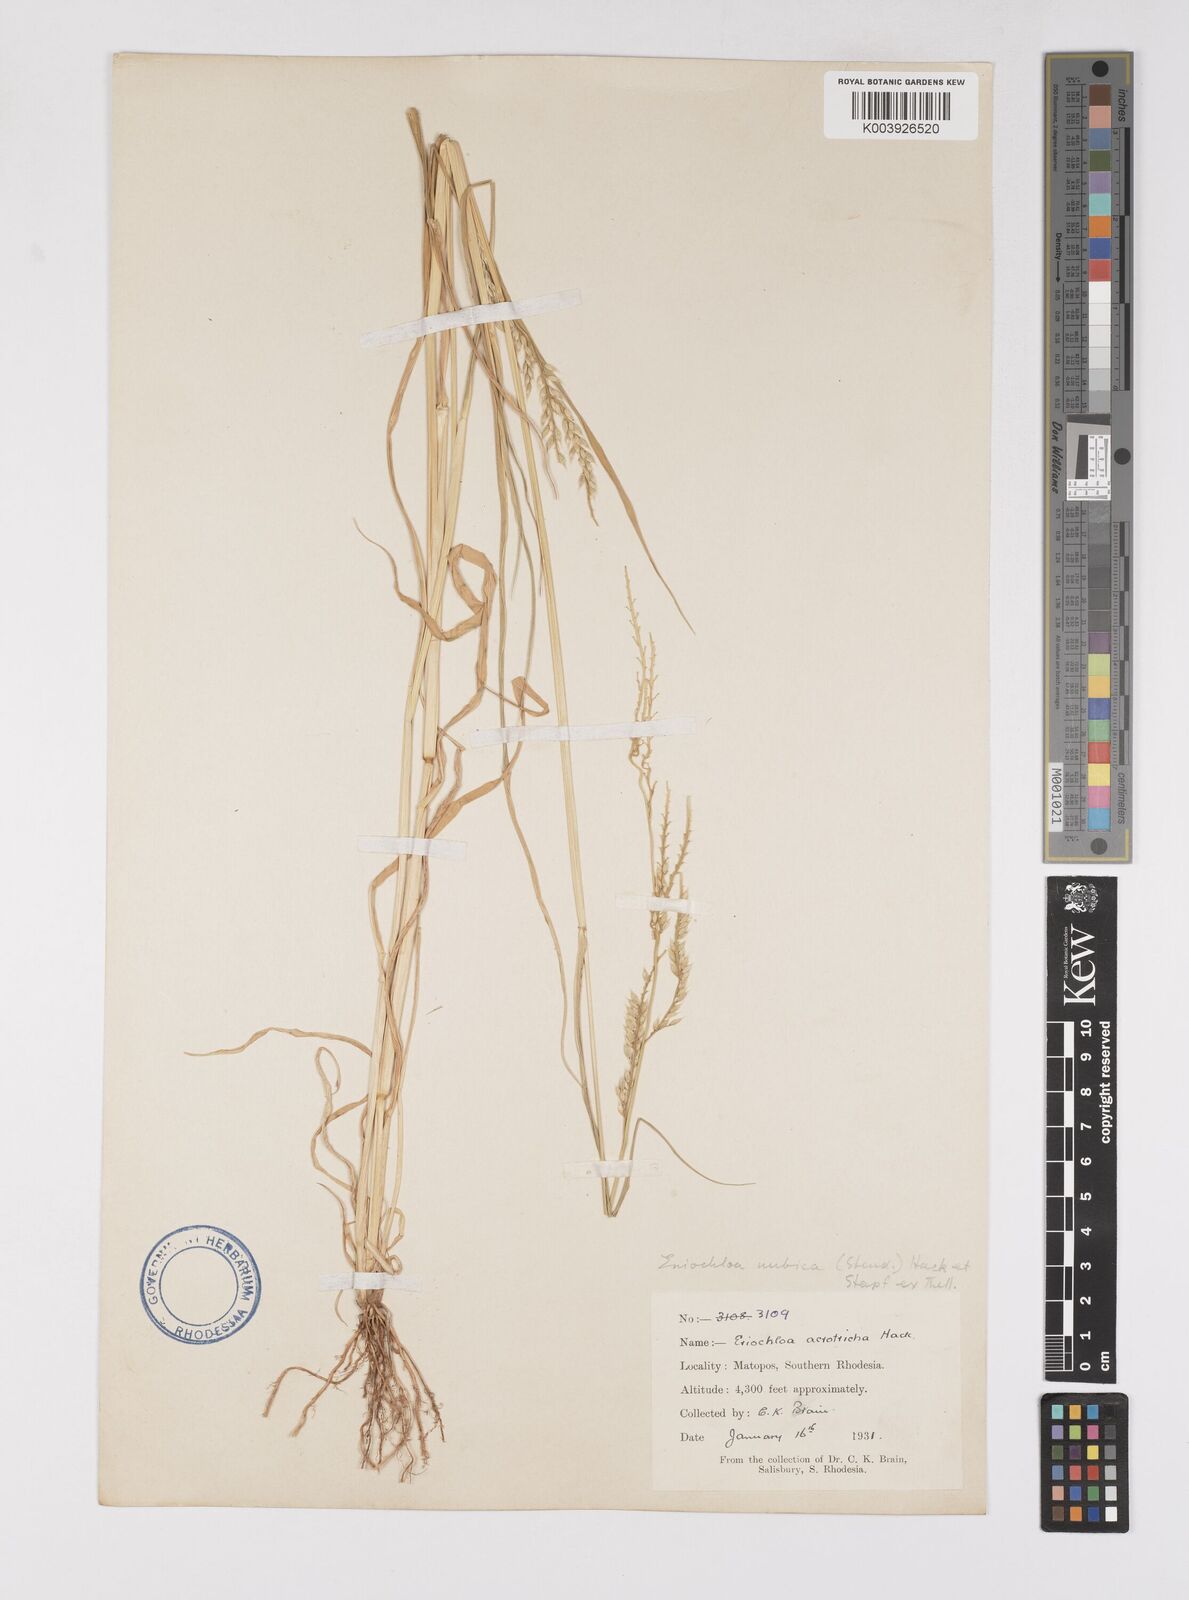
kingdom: Plantae
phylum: Tracheophyta
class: Liliopsida
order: Poales
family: Poaceae
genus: Eriochloa
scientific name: Eriochloa barbatus
